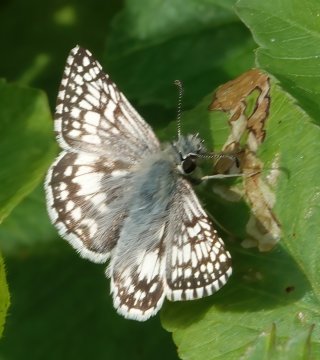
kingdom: Animalia
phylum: Arthropoda
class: Insecta
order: Lepidoptera
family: Hesperiidae
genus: Pyrgus
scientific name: Pyrgus communis
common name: White Checkered-Skipper
